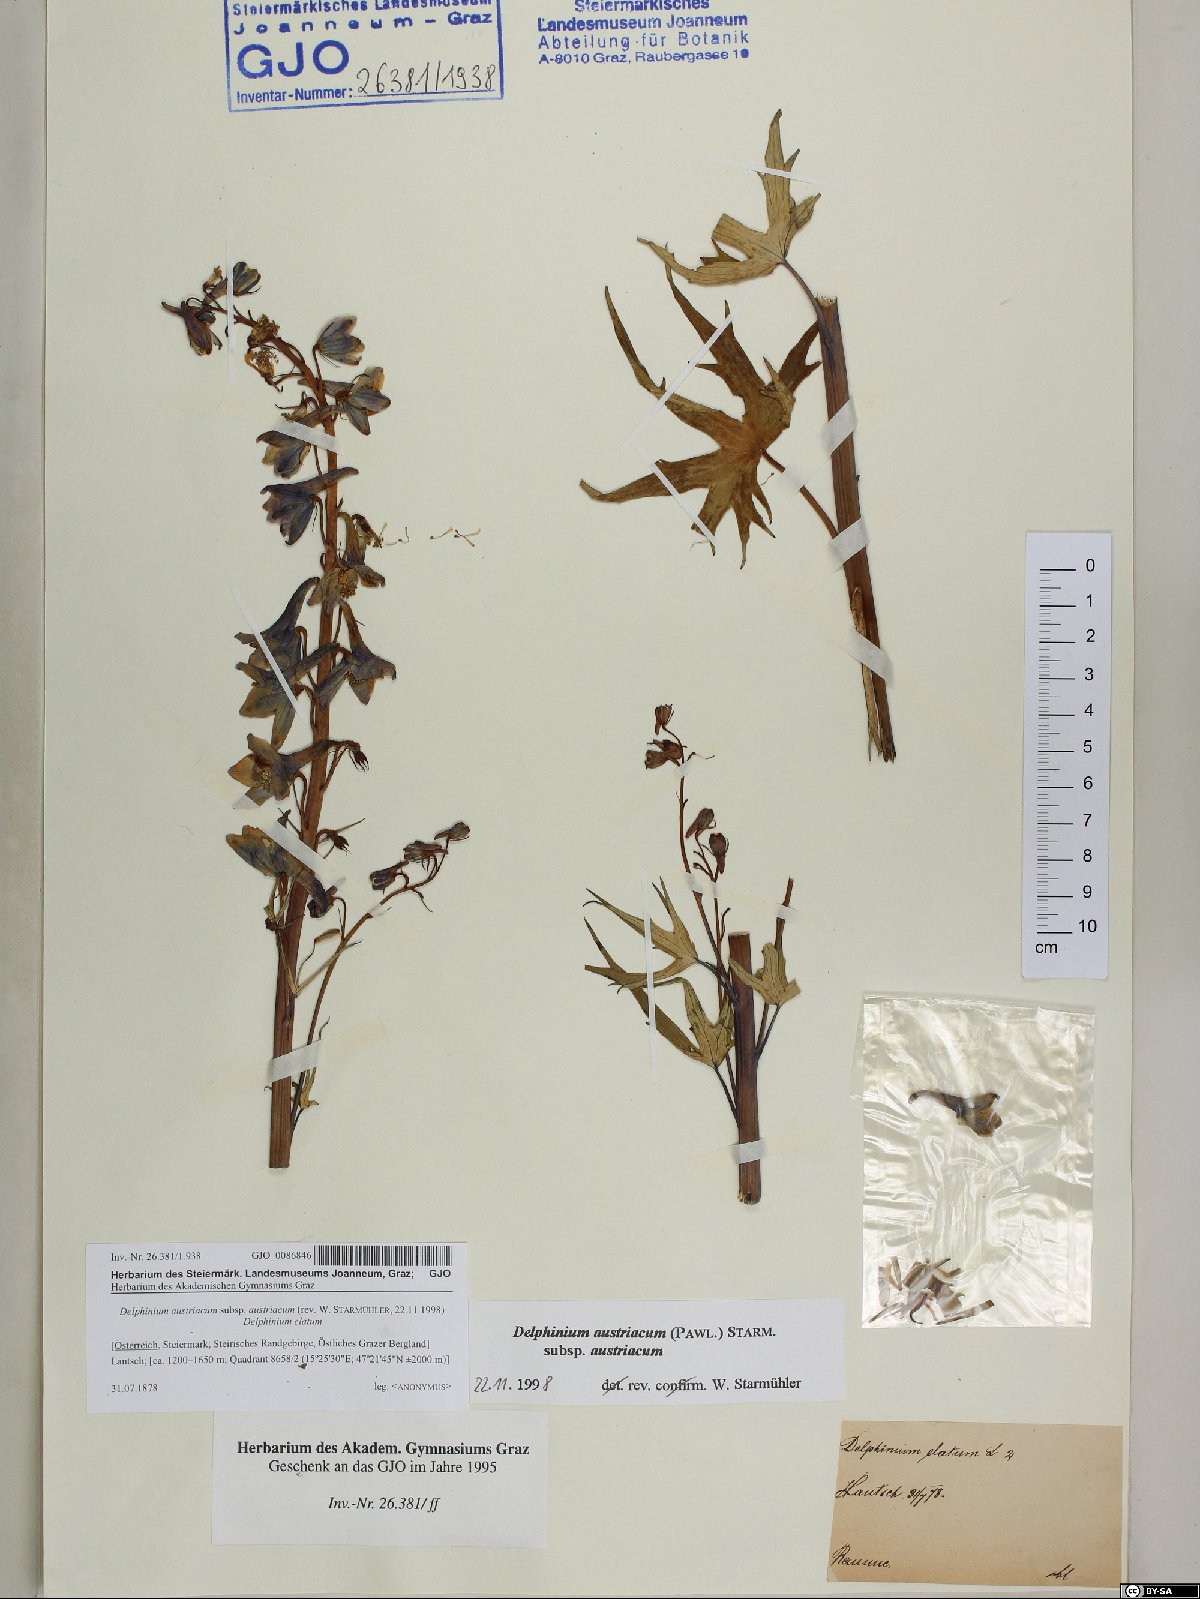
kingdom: Plantae
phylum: Tracheophyta
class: Magnoliopsida
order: Ranunculales
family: Ranunculaceae
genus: Delphinium
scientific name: Delphinium austriacum
